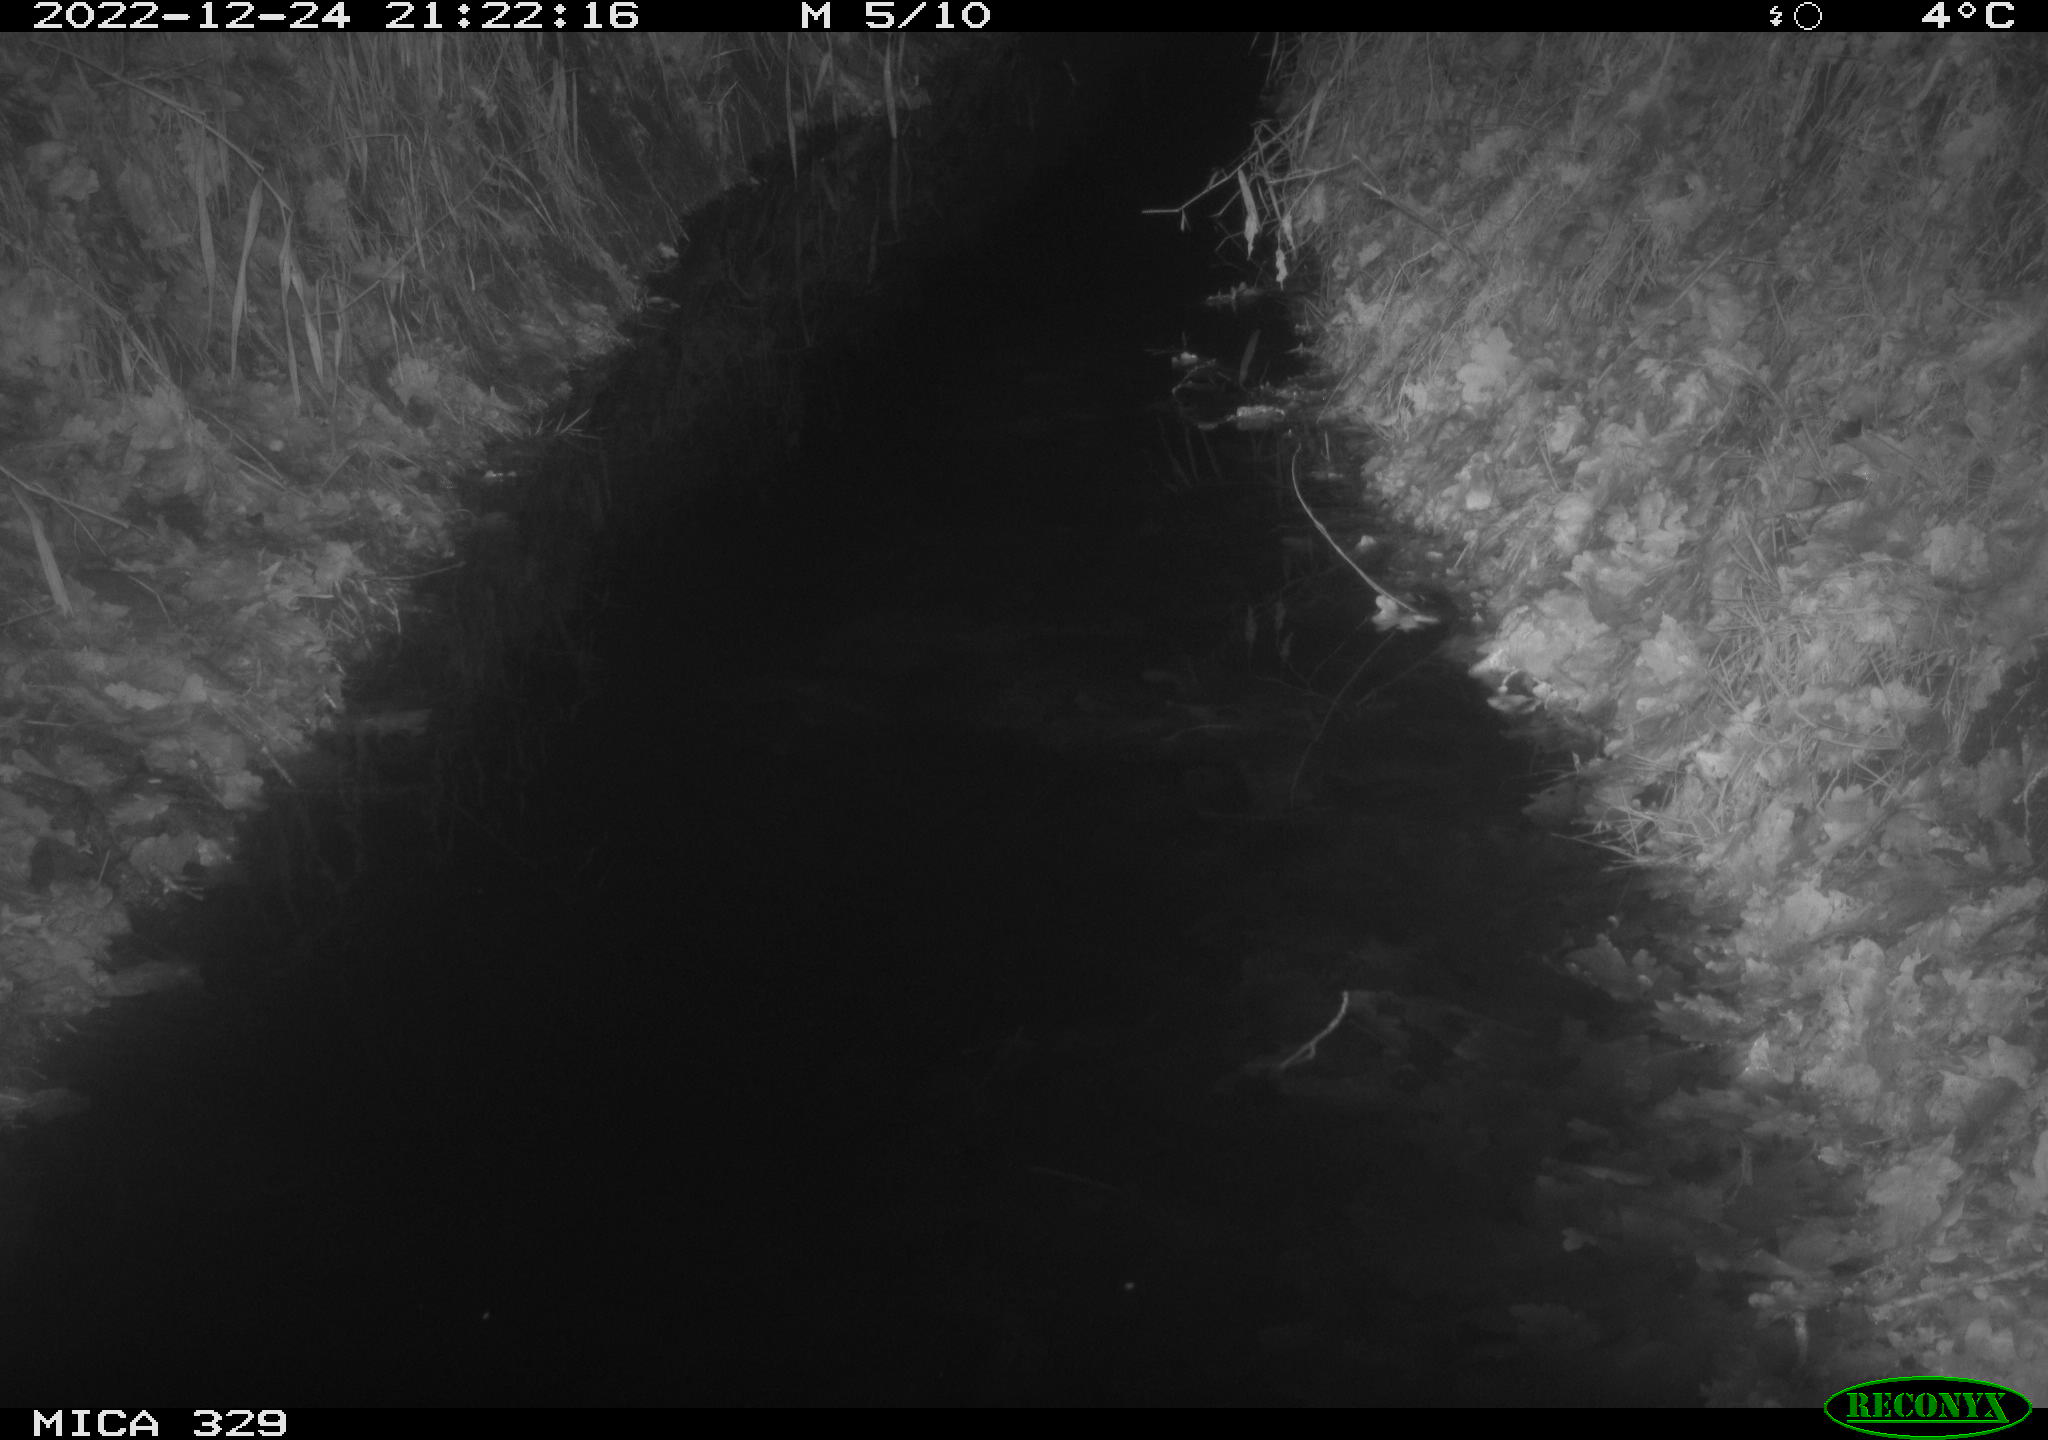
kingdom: Animalia
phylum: Chordata
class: Mammalia
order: Rodentia
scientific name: Rodentia
